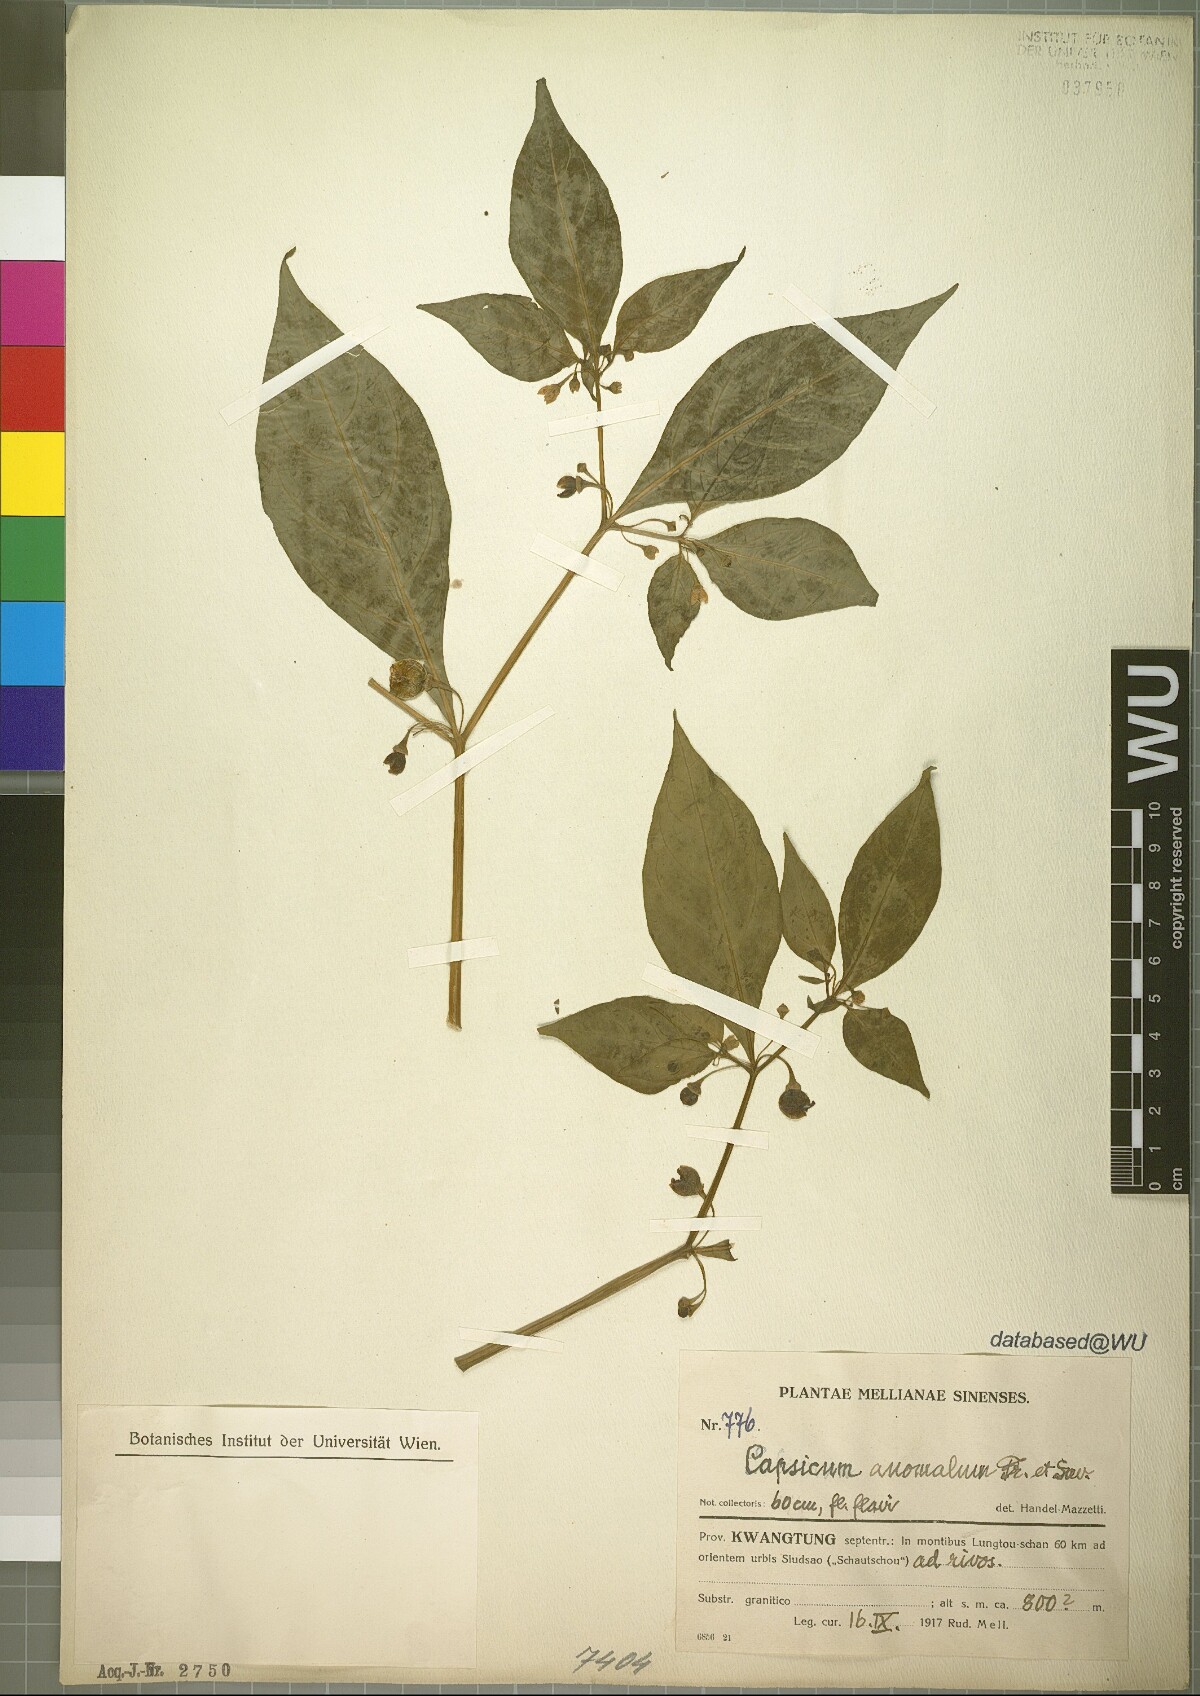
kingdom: Plantae
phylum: Tracheophyta
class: Magnoliopsida
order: Solanales
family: Solanaceae
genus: Tubocapsicum
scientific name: Tubocapsicum anomalum
